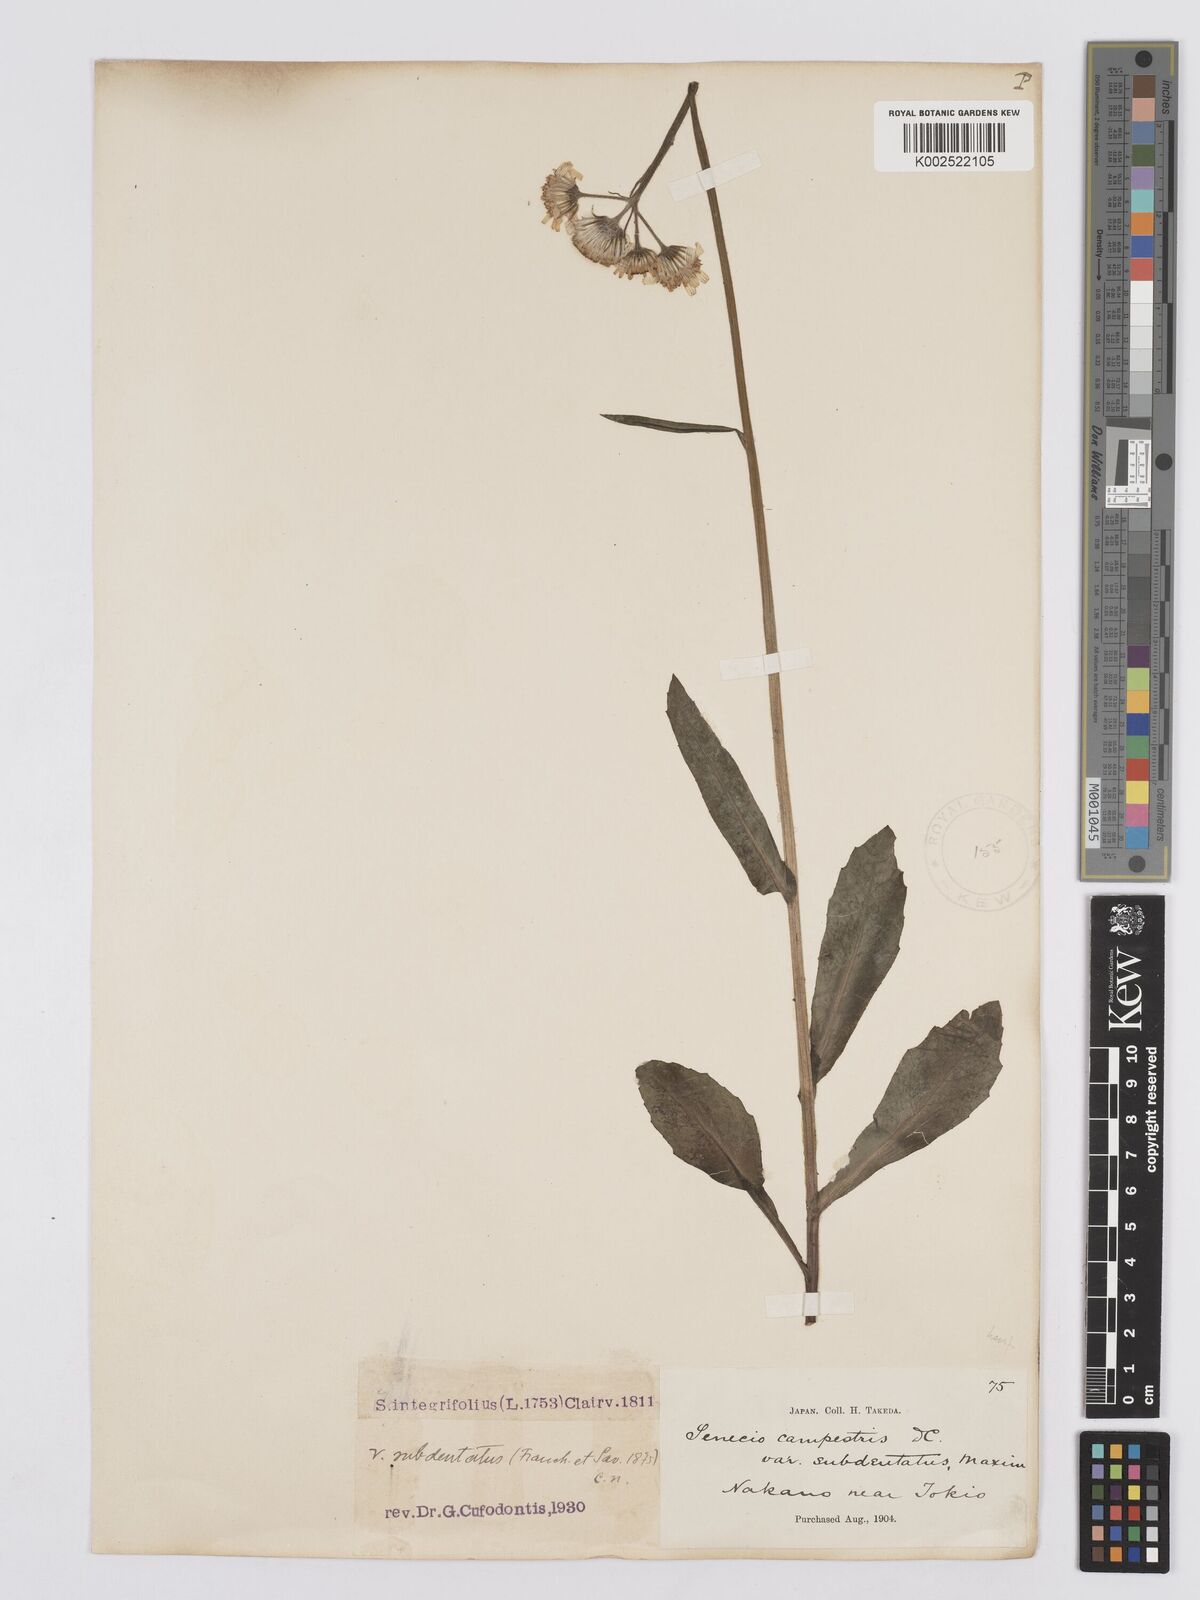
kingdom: Plantae
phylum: Tracheophyta
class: Magnoliopsida
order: Asterales
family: Asteraceae
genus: Tephroseris
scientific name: Tephroseris kirilowii
